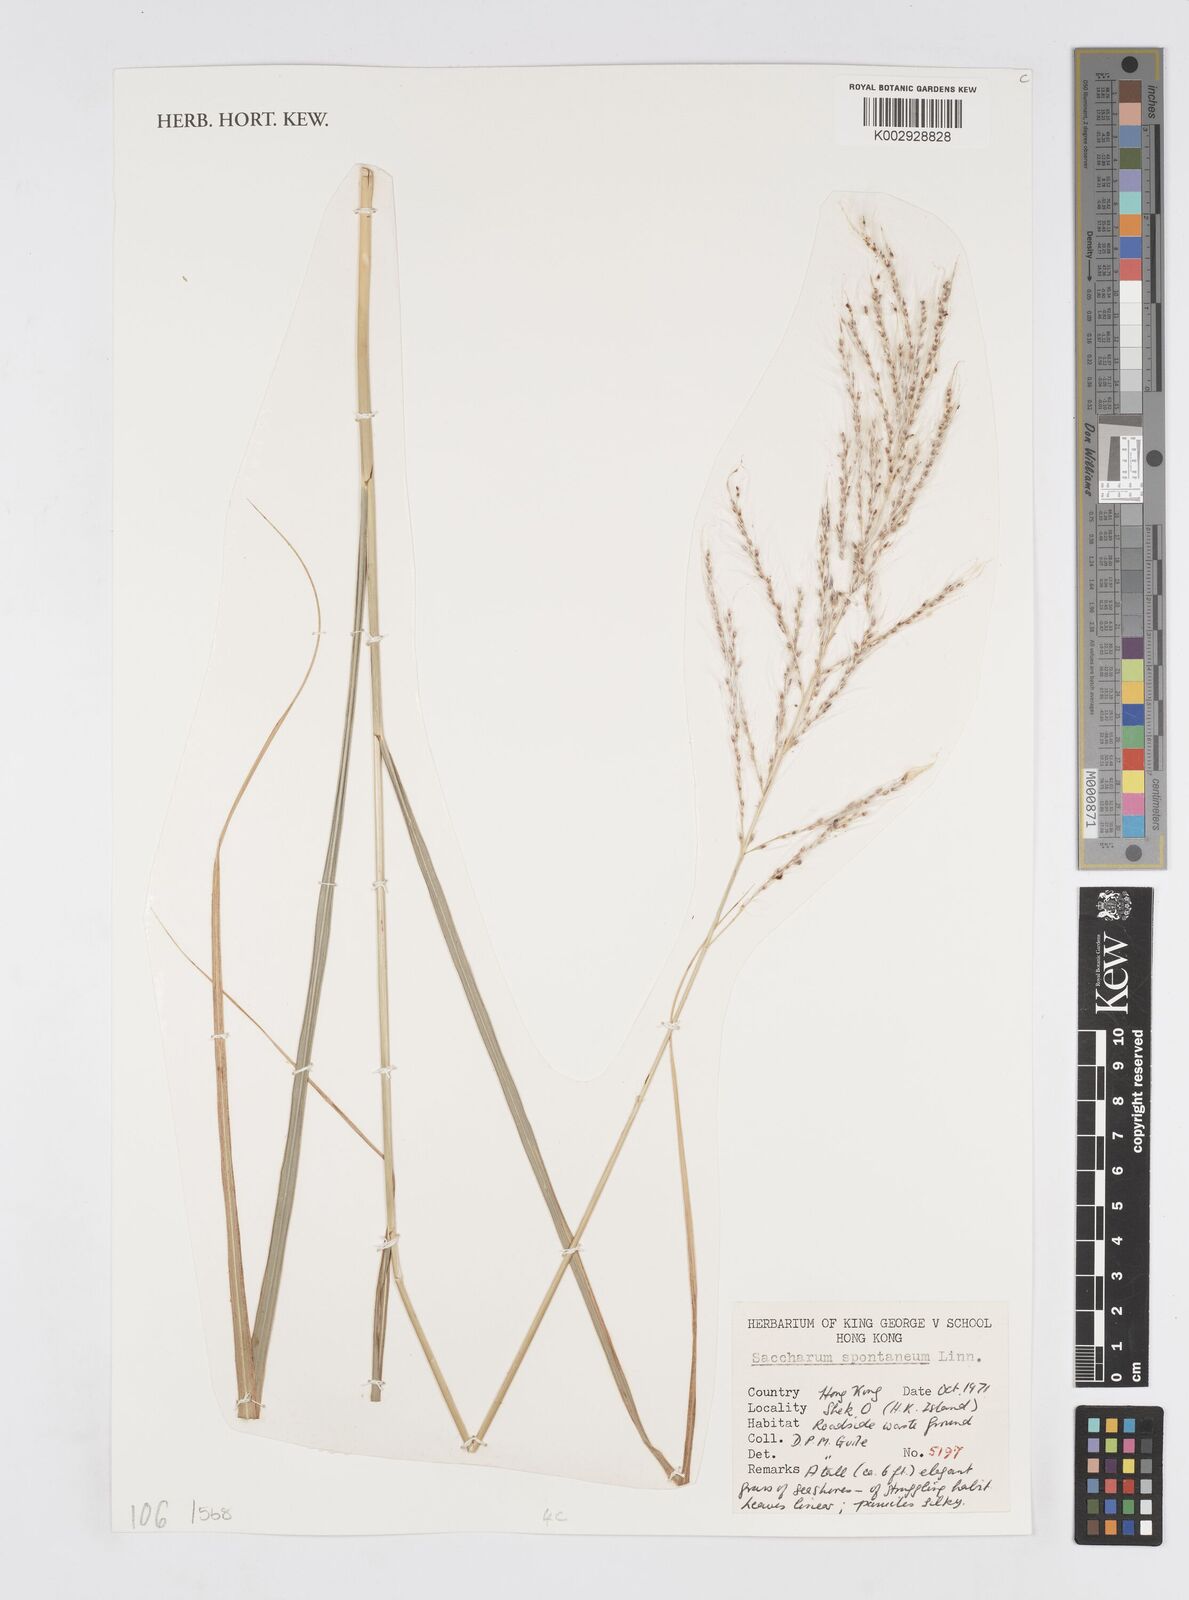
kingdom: Plantae
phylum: Tracheophyta
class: Liliopsida
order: Poales
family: Poaceae
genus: Saccharum
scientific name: Saccharum spontaneum
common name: Wild sugarcane
